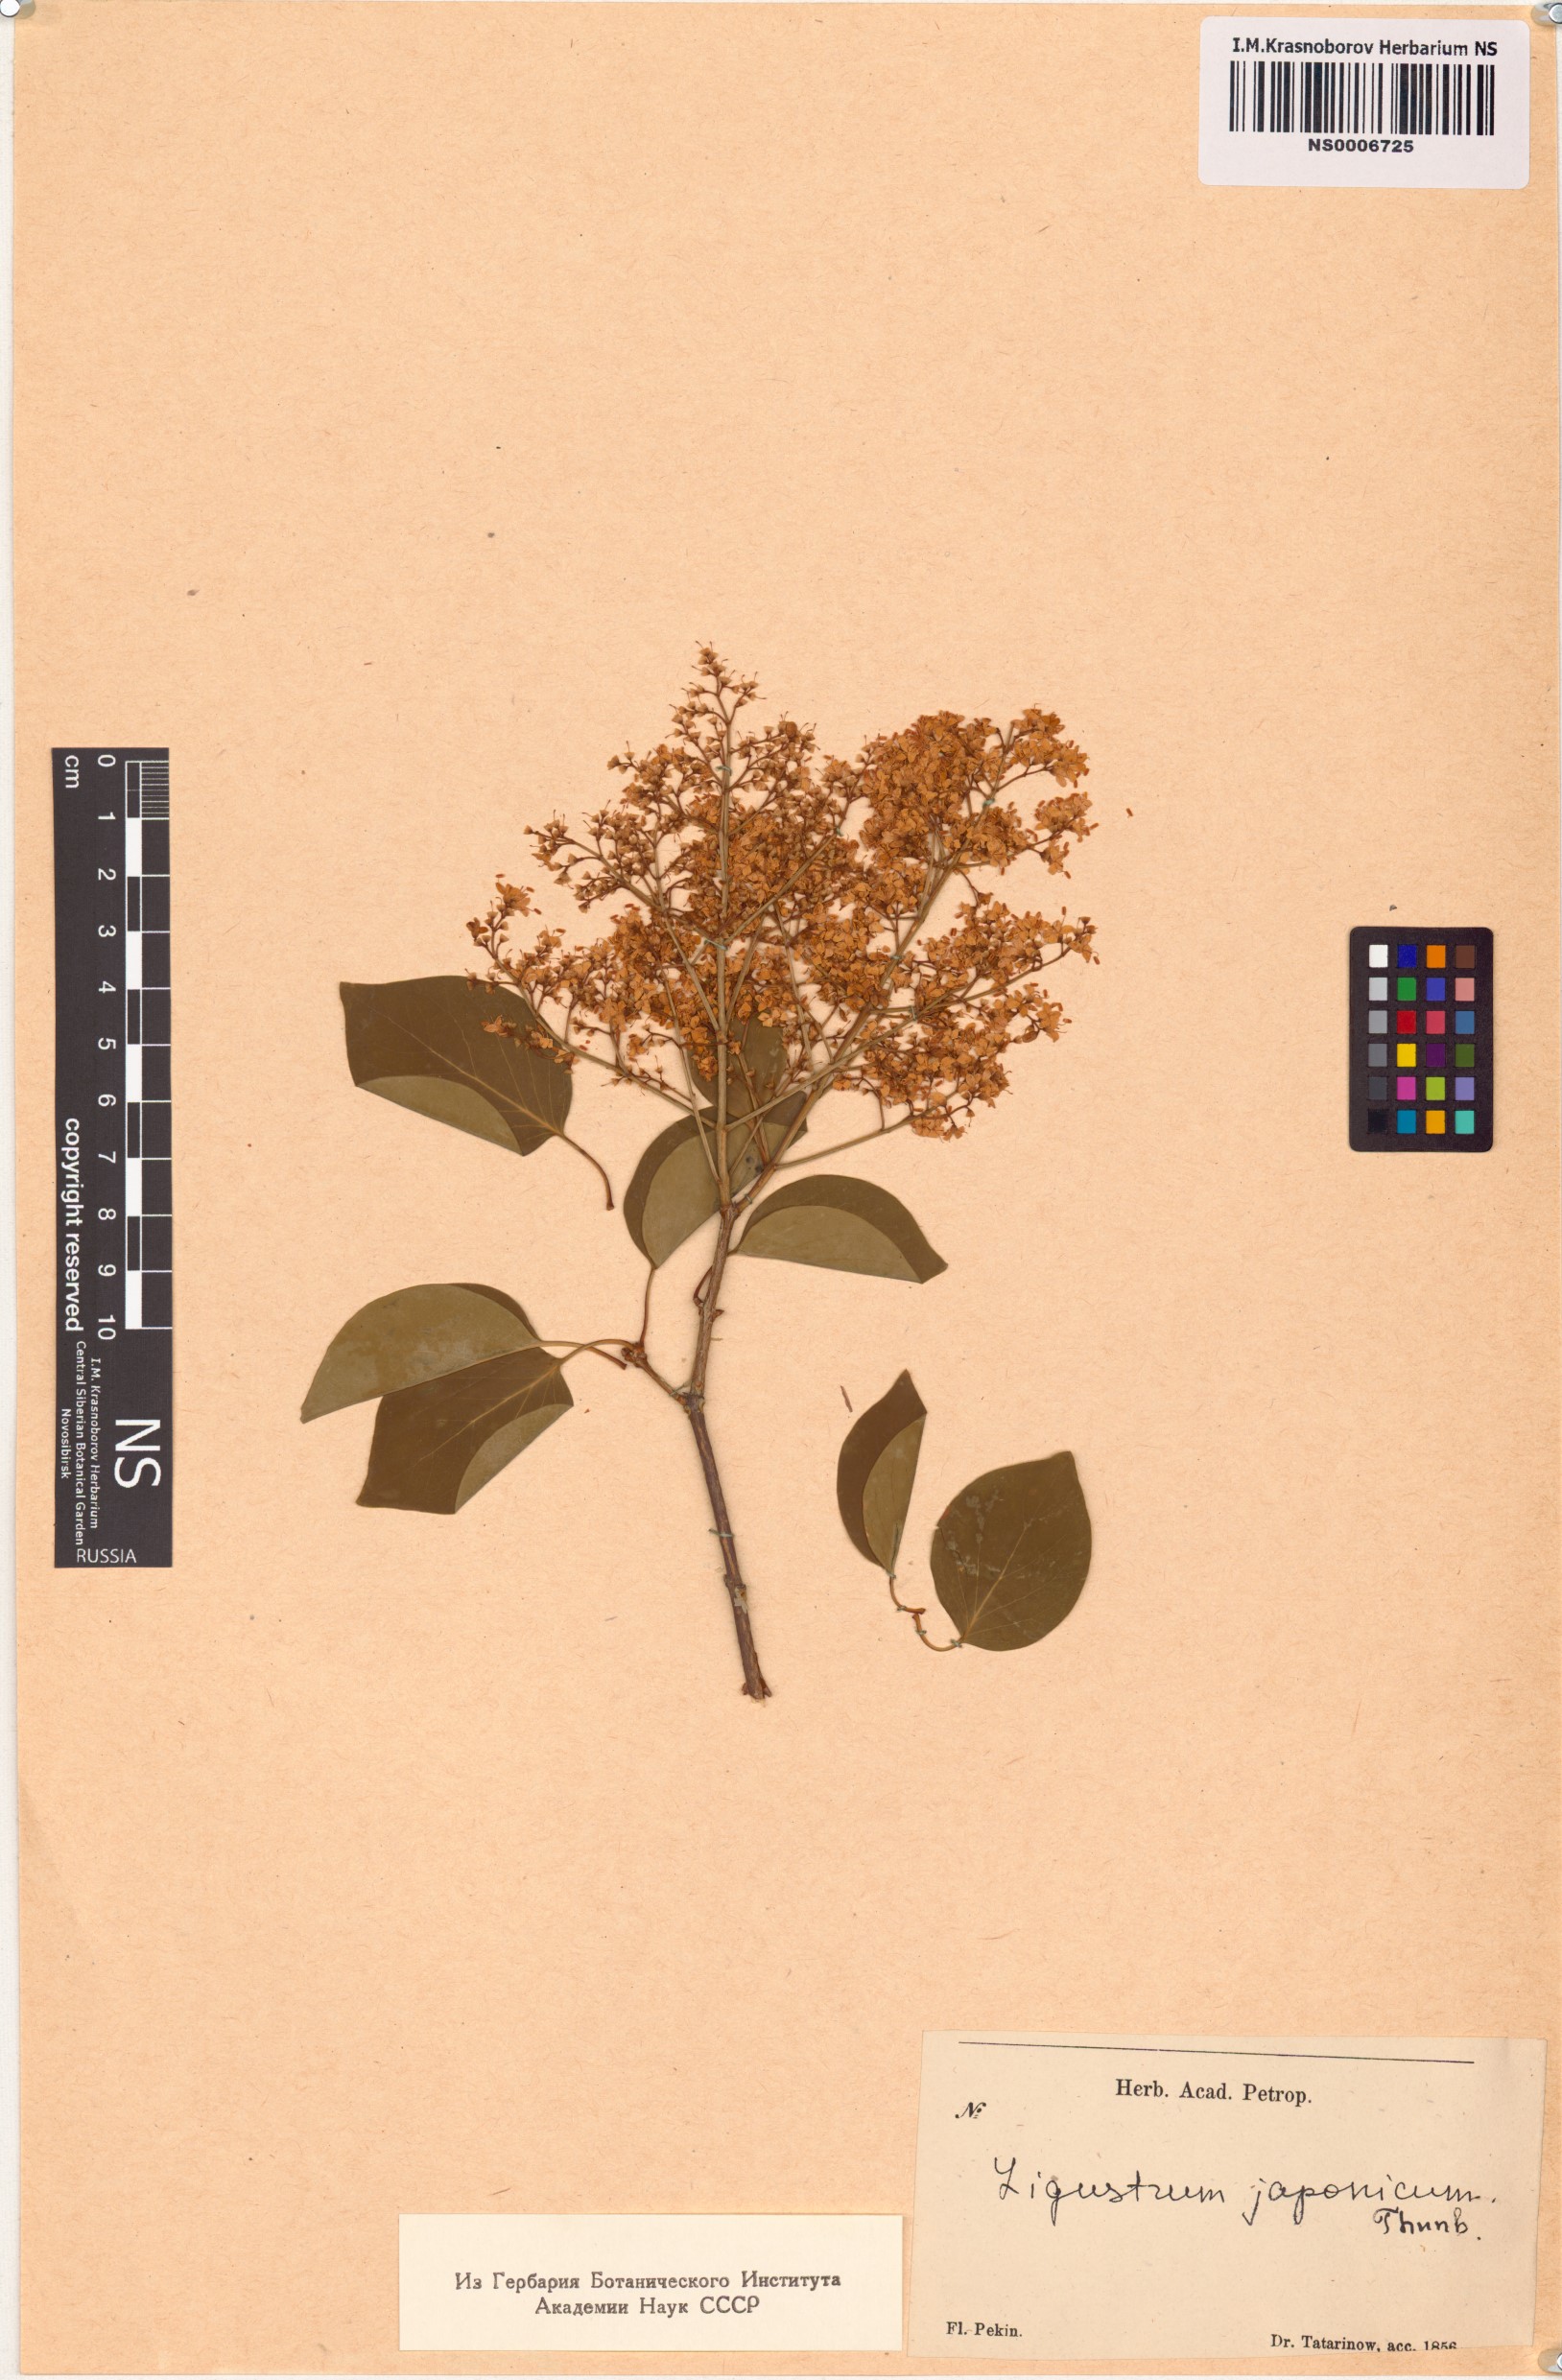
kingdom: Plantae
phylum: Tracheophyta
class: Magnoliopsida
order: Lamiales
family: Oleaceae
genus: Ligustrum
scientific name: Ligustrum japonicum
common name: Japanese privet
